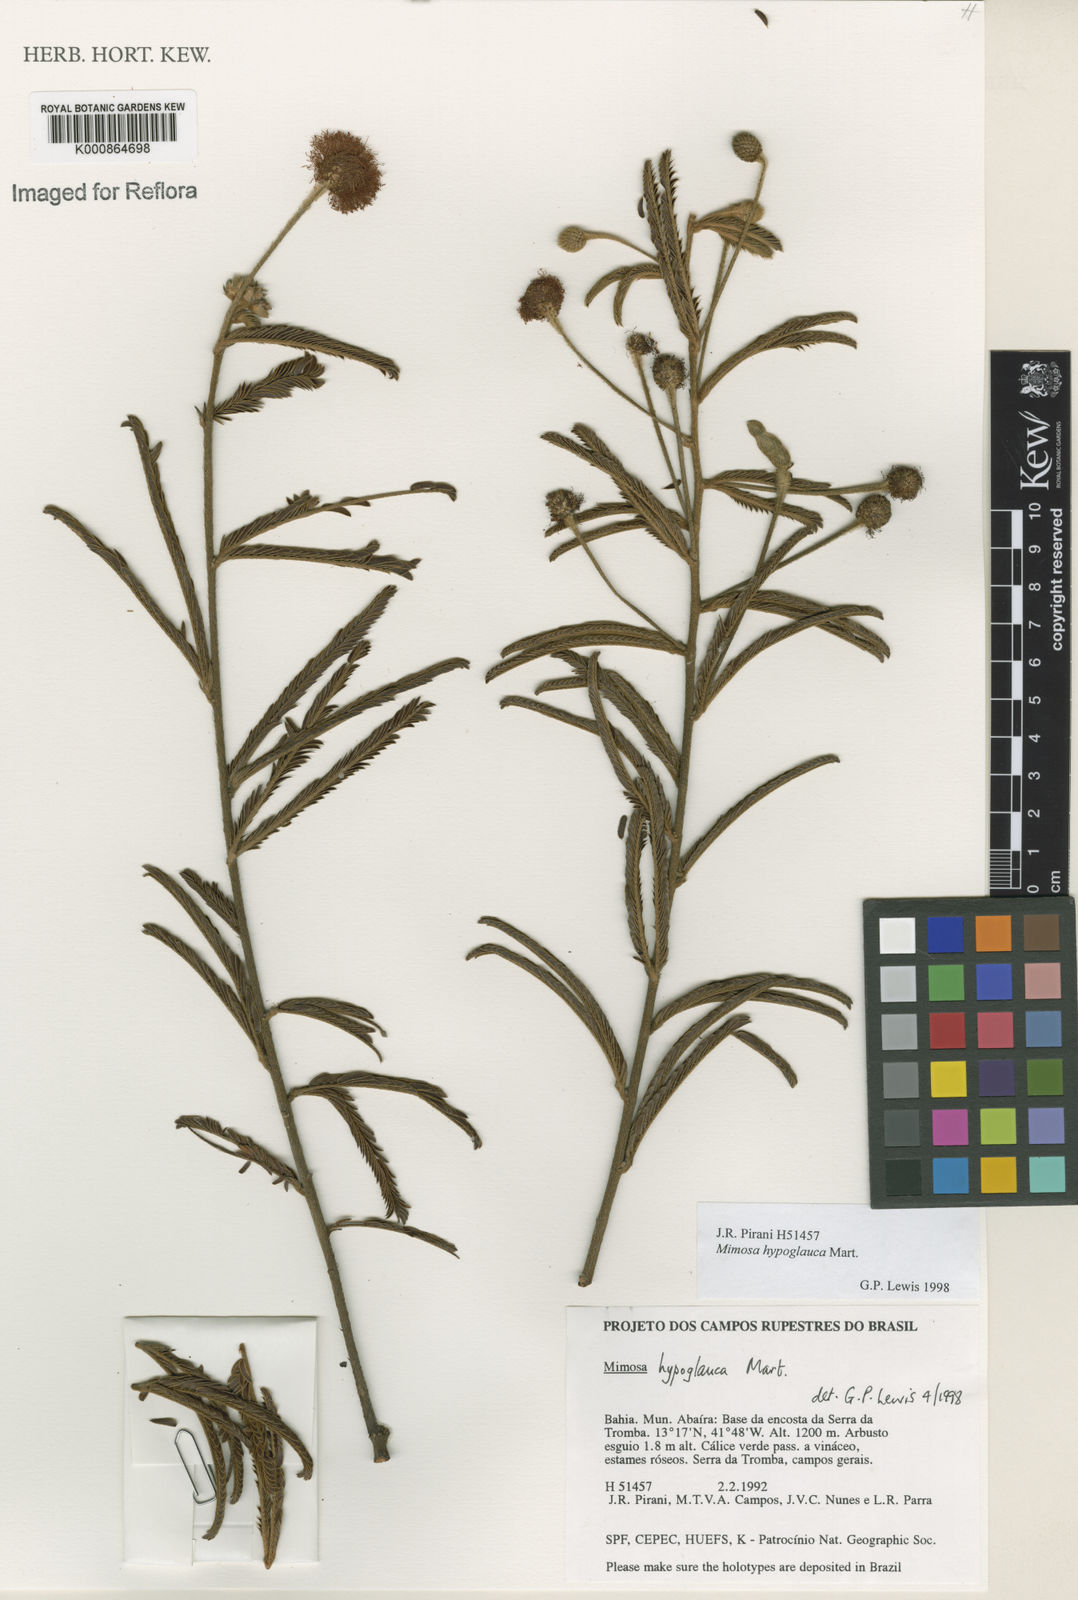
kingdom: Plantae
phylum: Tracheophyta
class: Magnoliopsida
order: Fabales
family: Fabaceae
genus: Mimosa
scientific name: Mimosa hypoglauca
